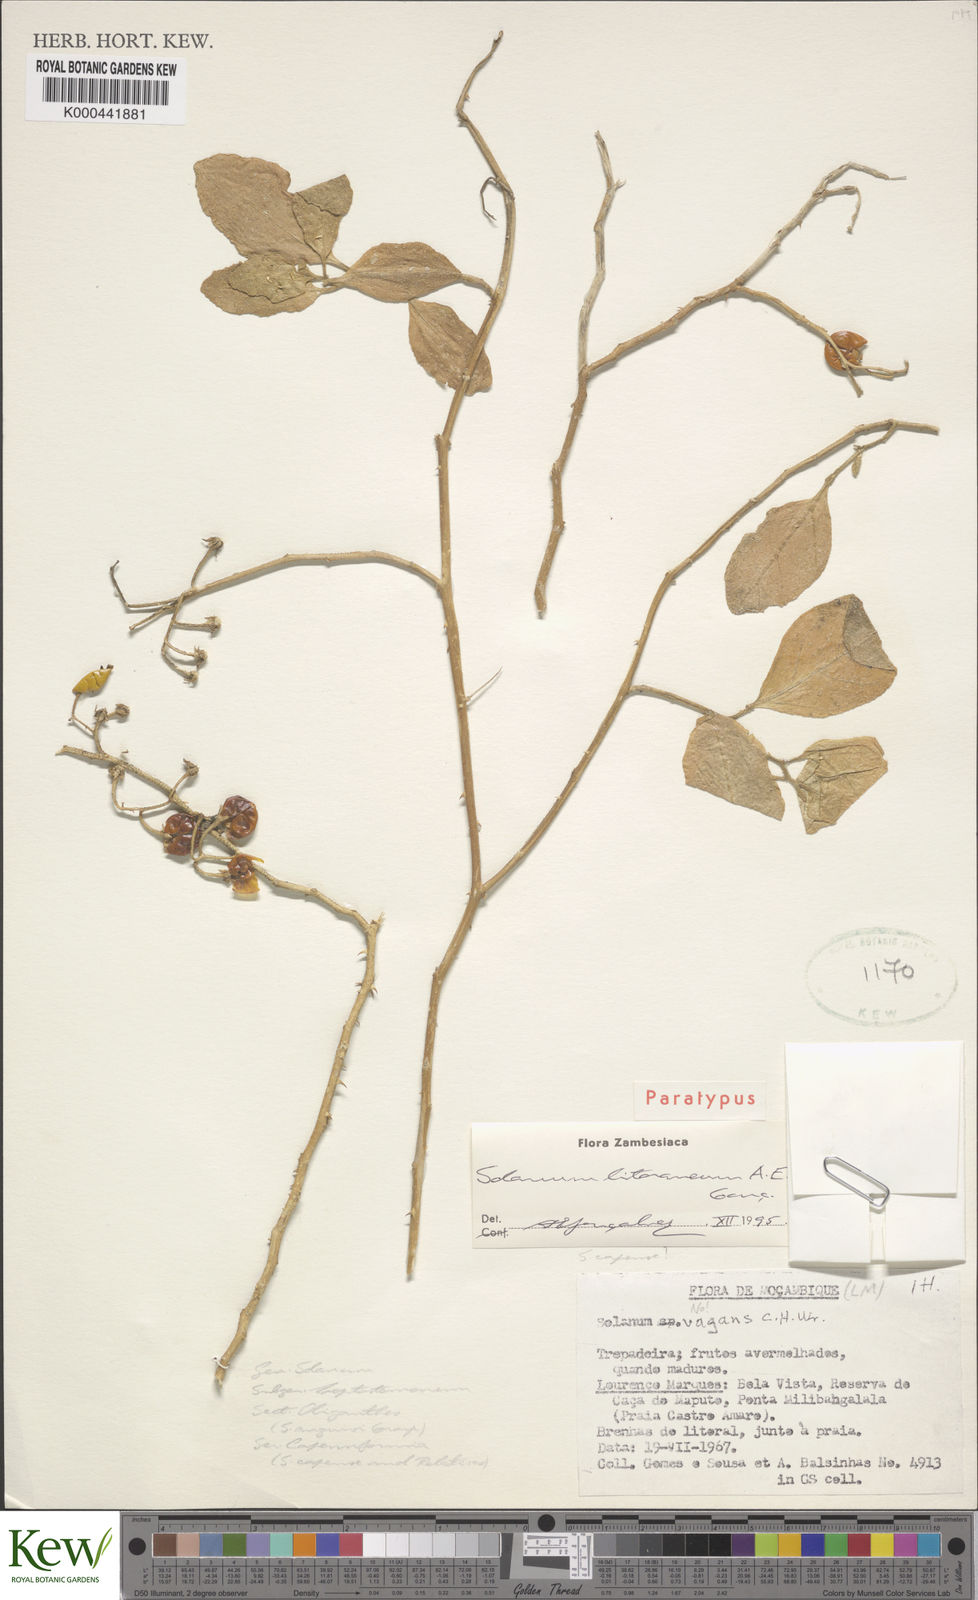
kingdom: Plantae
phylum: Tracheophyta
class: Magnoliopsida
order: Solanales
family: Solanaceae
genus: Solanum
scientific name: Solanum
